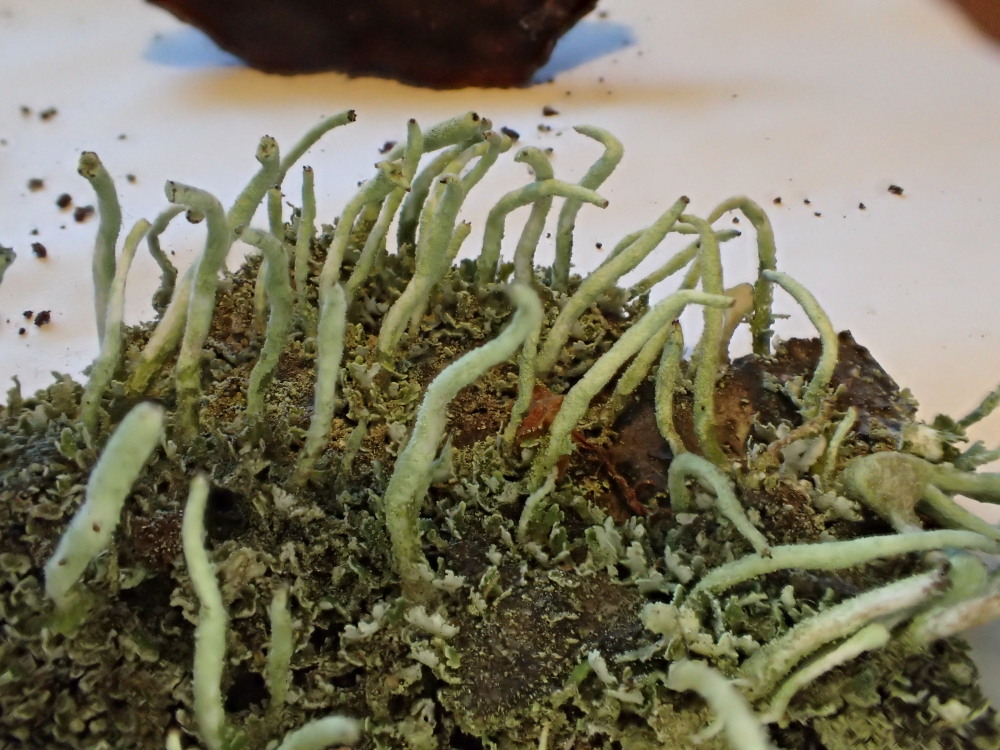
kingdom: Fungi
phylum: Ascomycota
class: Lecanoromycetes
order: Lecanorales
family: Cladoniaceae
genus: Cladonia
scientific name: Cladonia ochrochlora
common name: stød-bægerlav
